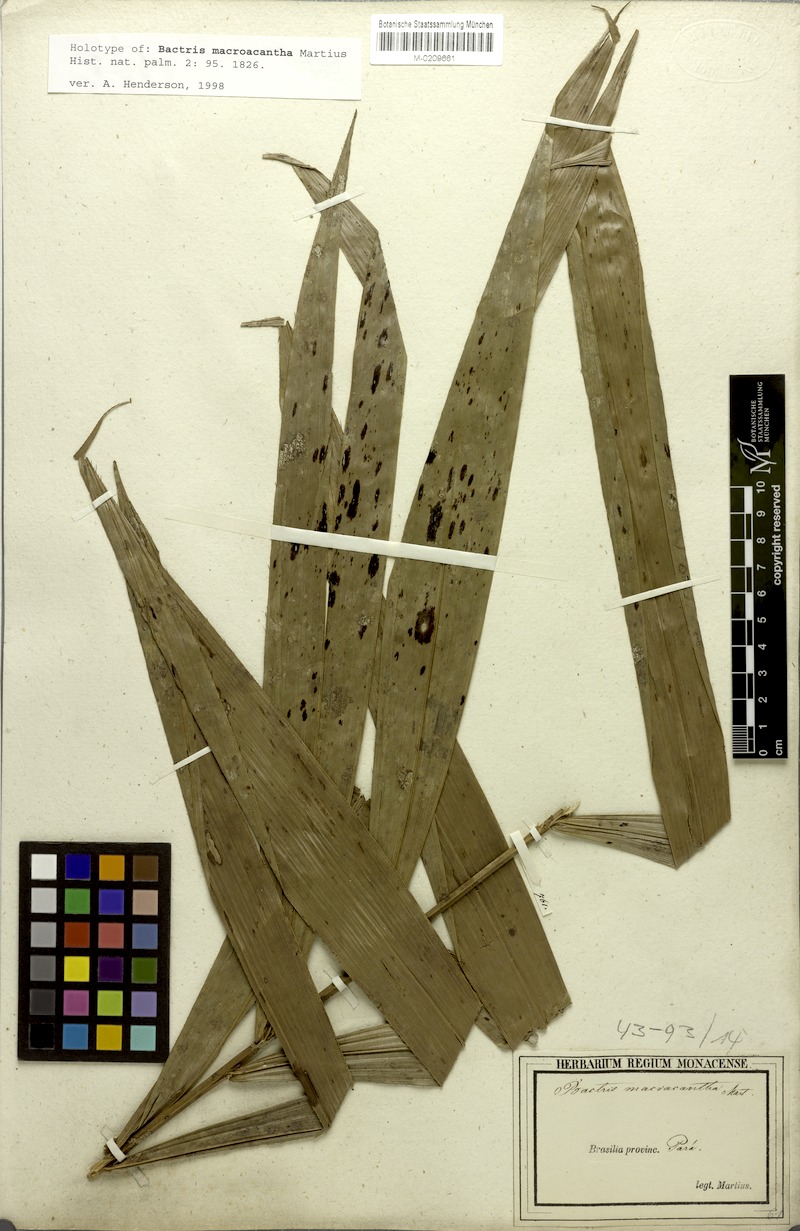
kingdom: Plantae
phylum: Tracheophyta
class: Liliopsida
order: Arecales
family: Arecaceae
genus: Bactris
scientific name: Bactris macroacantha
